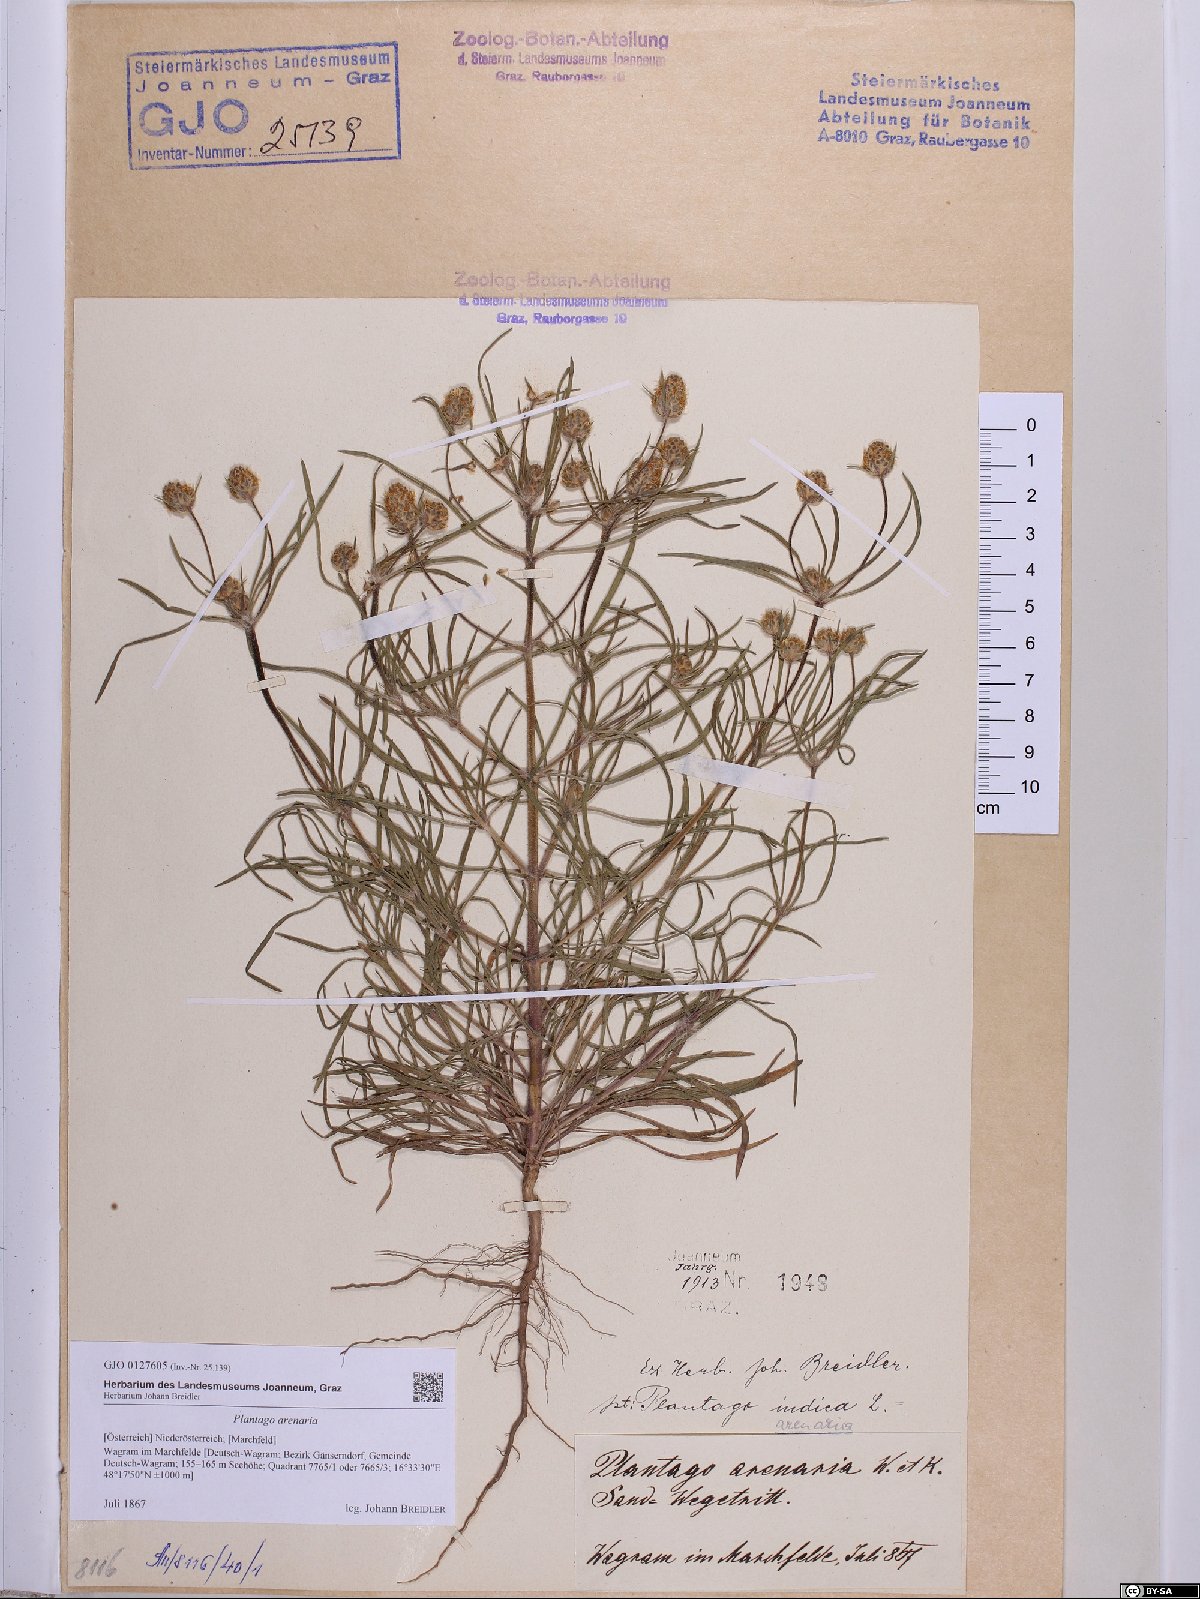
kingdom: Plantae
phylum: Tracheophyta
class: Magnoliopsida
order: Lamiales
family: Plantaginaceae
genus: Plantago
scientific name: Plantago arenaria
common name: Branched plantain
